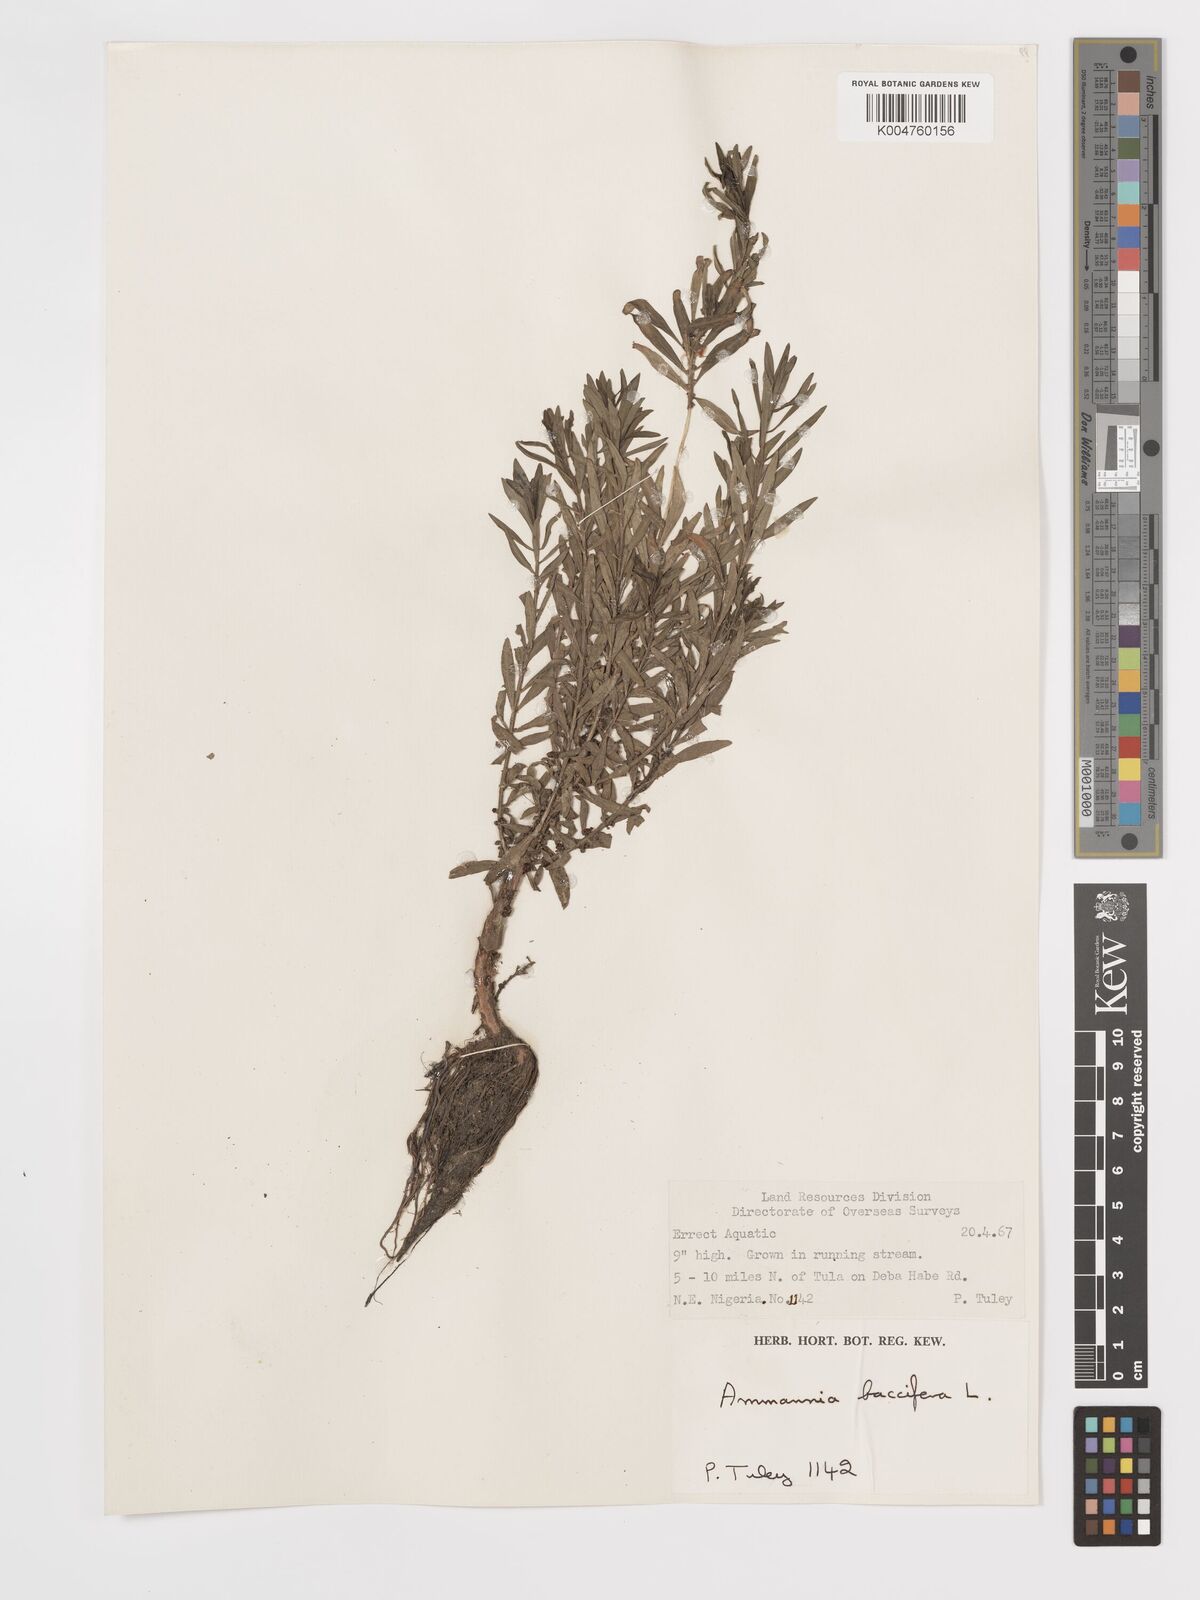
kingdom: Plantae
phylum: Tracheophyta
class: Magnoliopsida
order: Myrtales
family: Lythraceae
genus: Ammannia
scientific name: Ammannia
